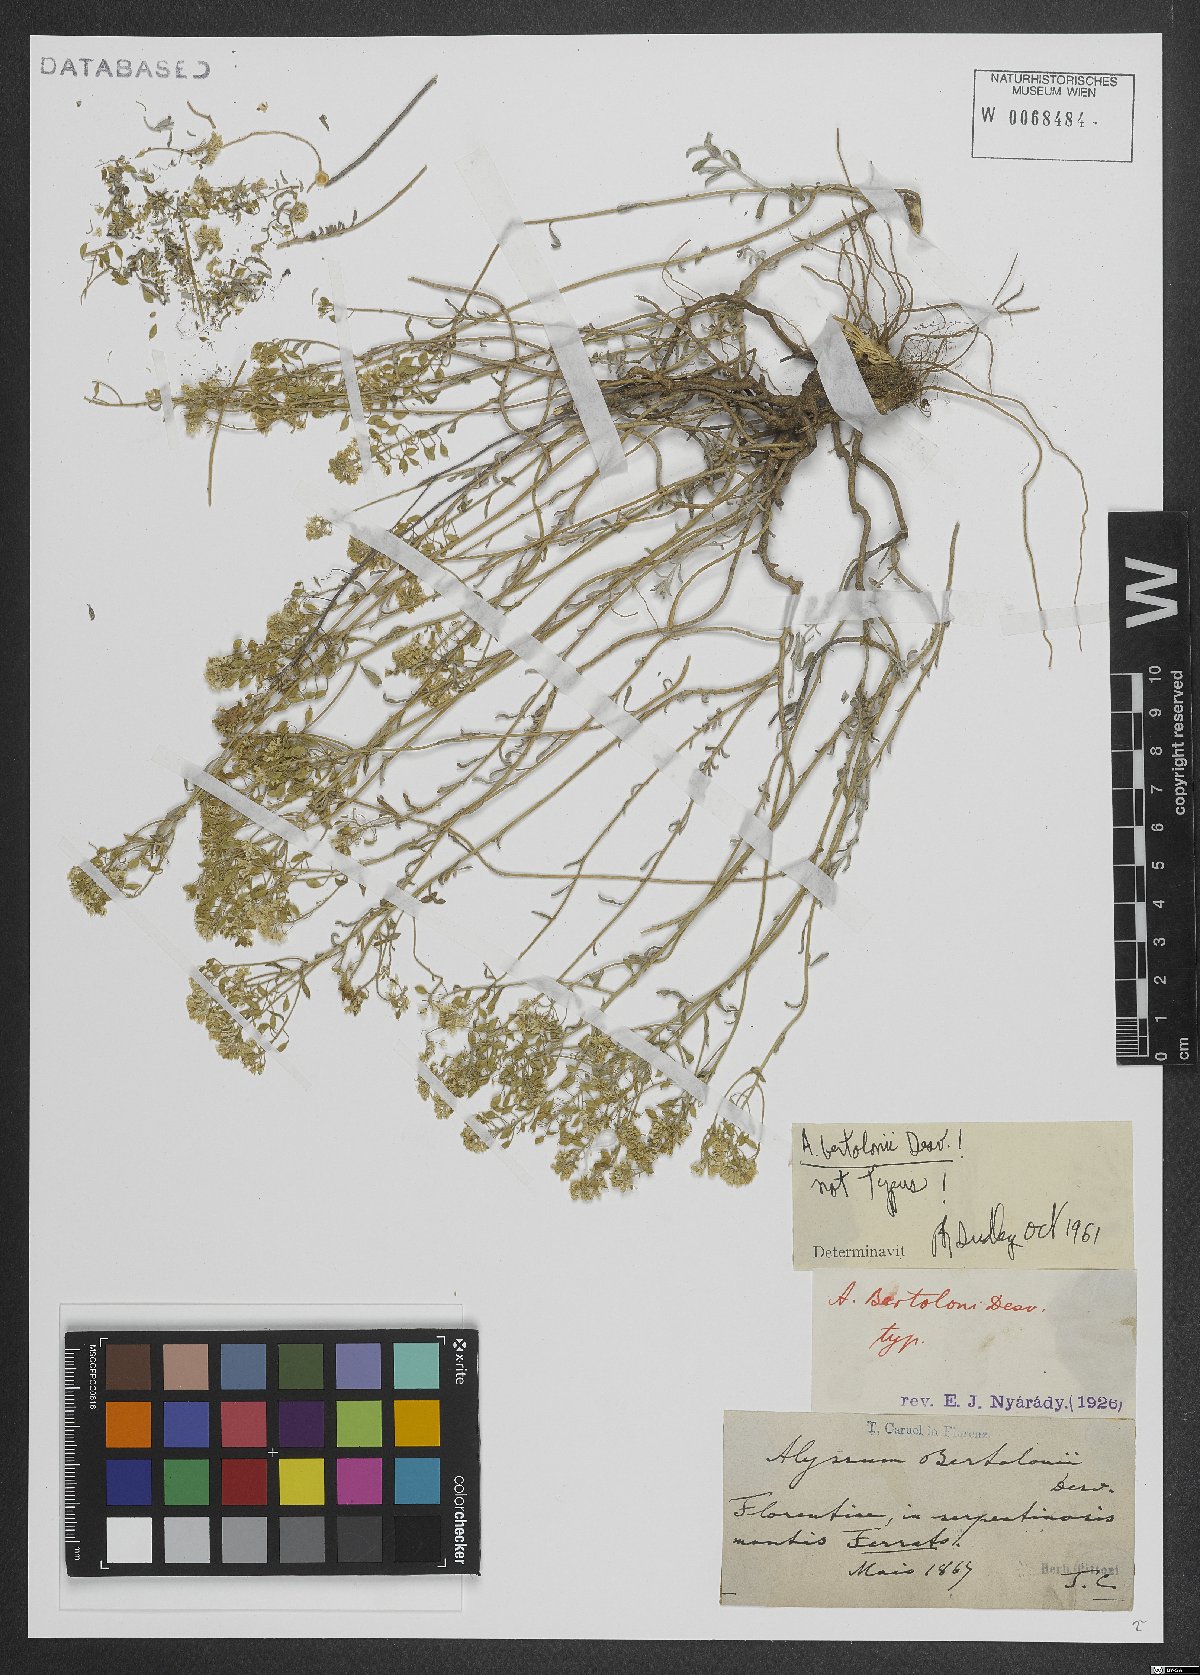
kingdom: Plantae
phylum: Tracheophyta
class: Magnoliopsida
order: Brassicales
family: Brassicaceae
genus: Odontarrhena
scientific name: Odontarrhena bertolonii
